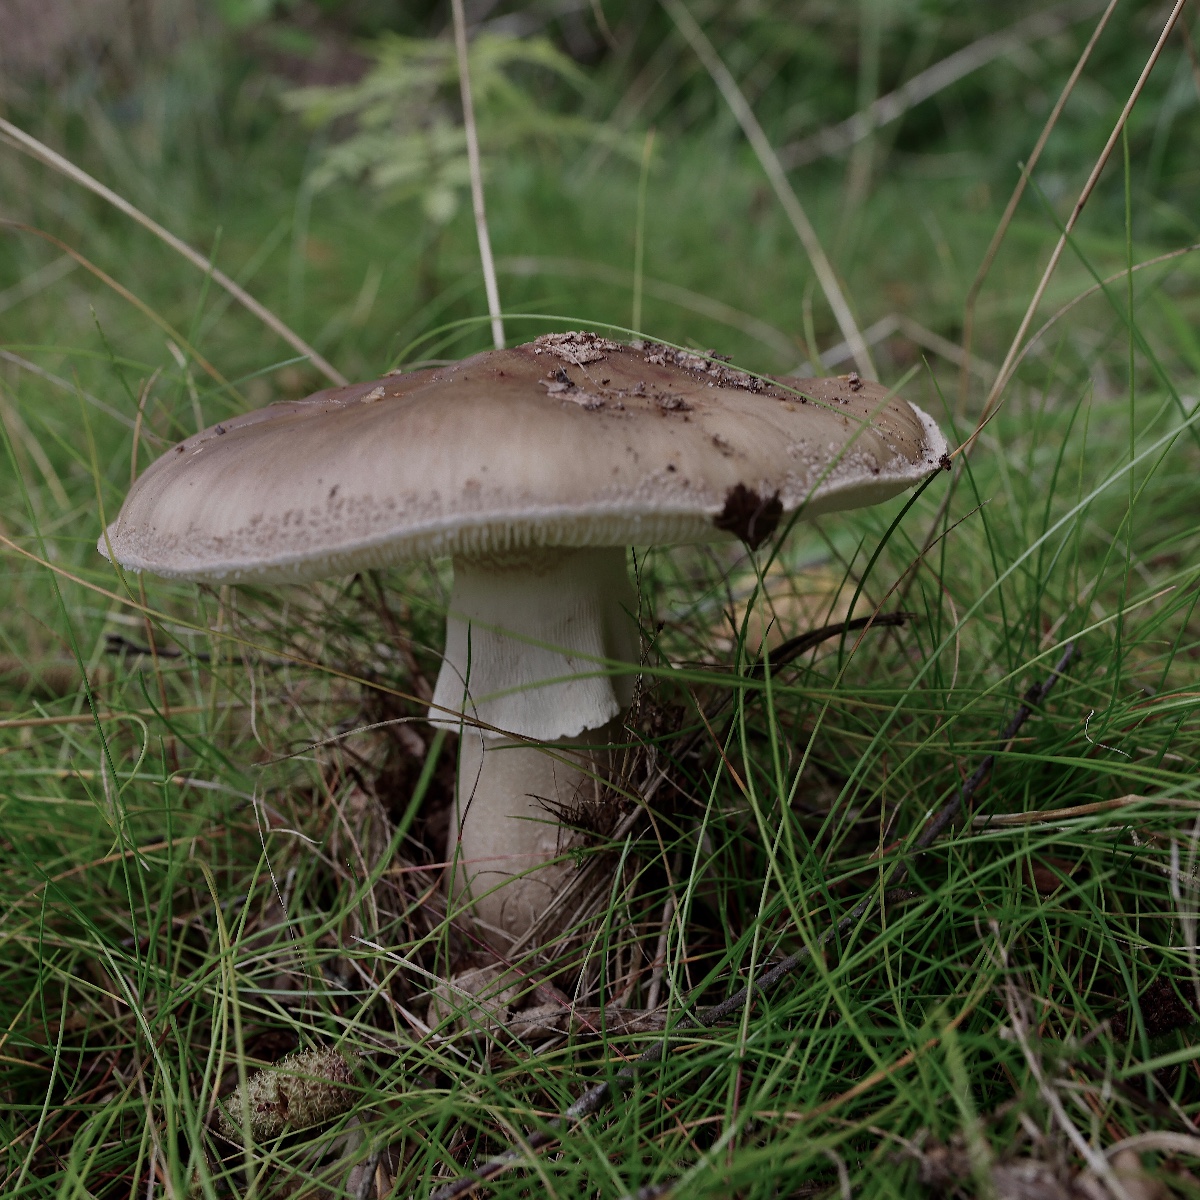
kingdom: Fungi
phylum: Basidiomycota
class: Agaricomycetes
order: Agaricales
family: Amanitaceae
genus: Amanita
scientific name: Amanita rubescens
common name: rødmende fluesvamp
